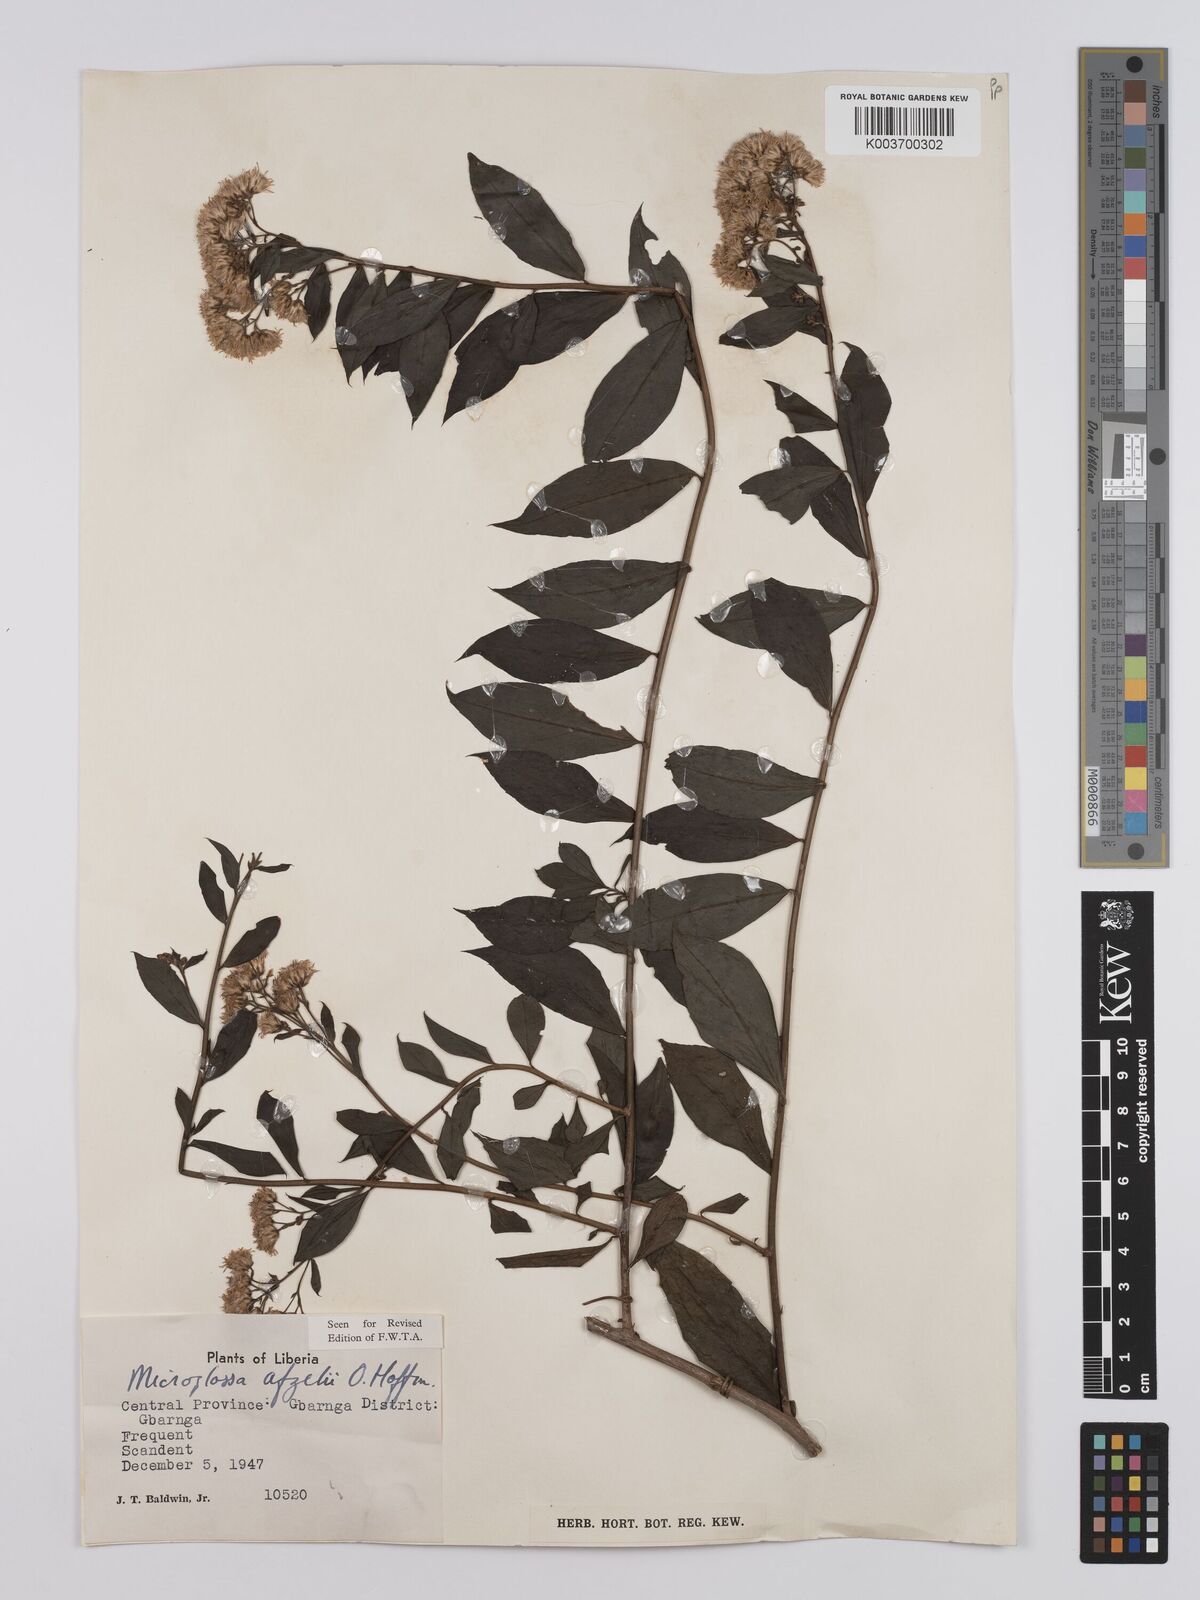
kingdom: Plantae
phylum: Tracheophyta
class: Magnoliopsida
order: Asterales
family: Asteraceae
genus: Microglossa
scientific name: Microglossa afzelii
